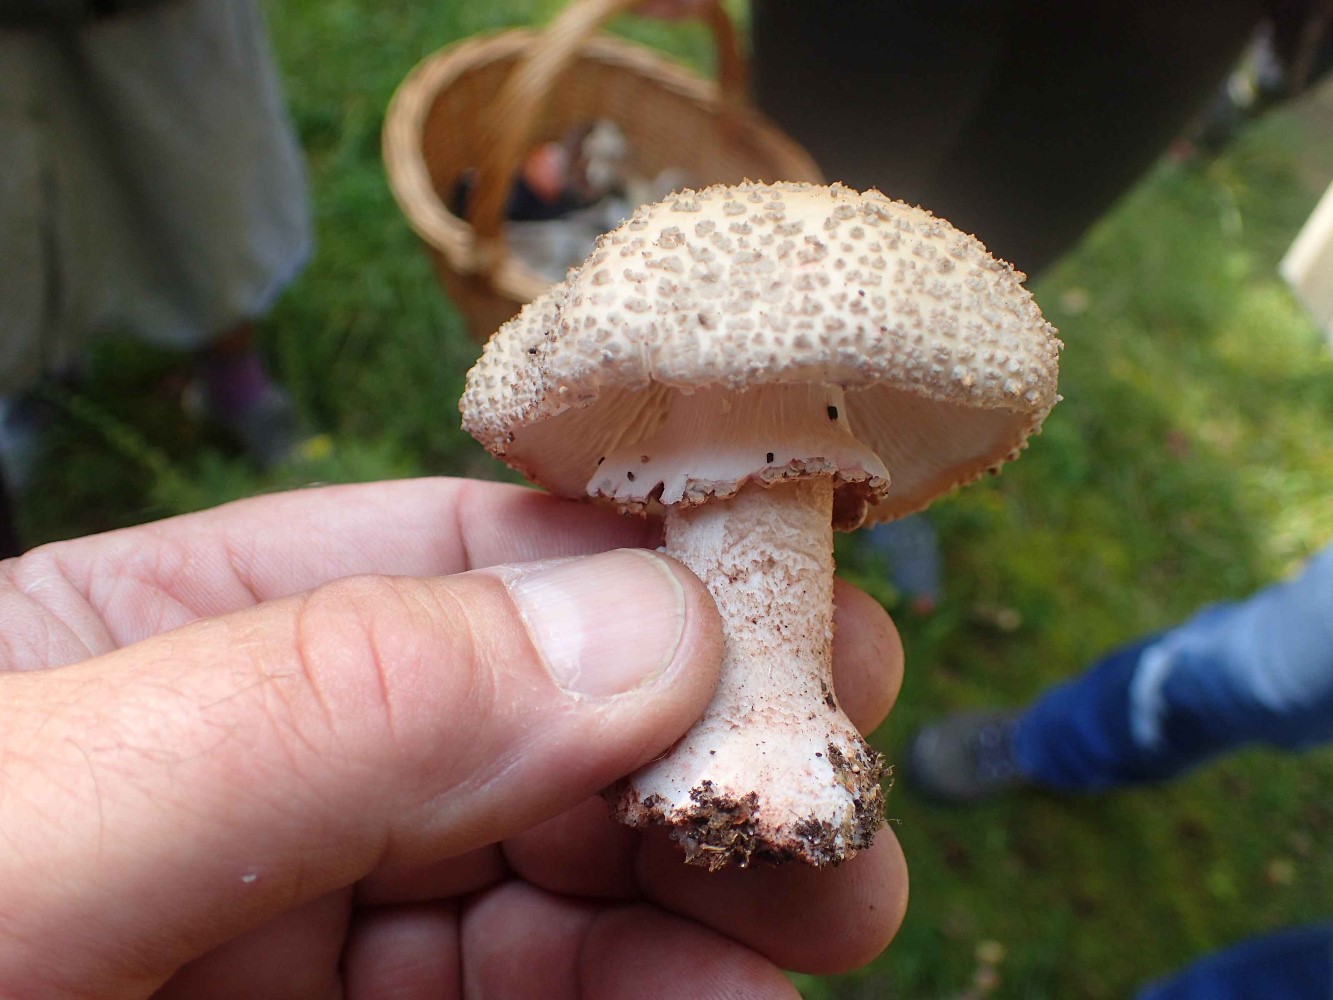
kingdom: Fungi
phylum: Basidiomycota
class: Agaricomycetes
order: Agaricales
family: Amanitaceae
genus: Amanita
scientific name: Amanita rubescens
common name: rødmende fluesvamp
